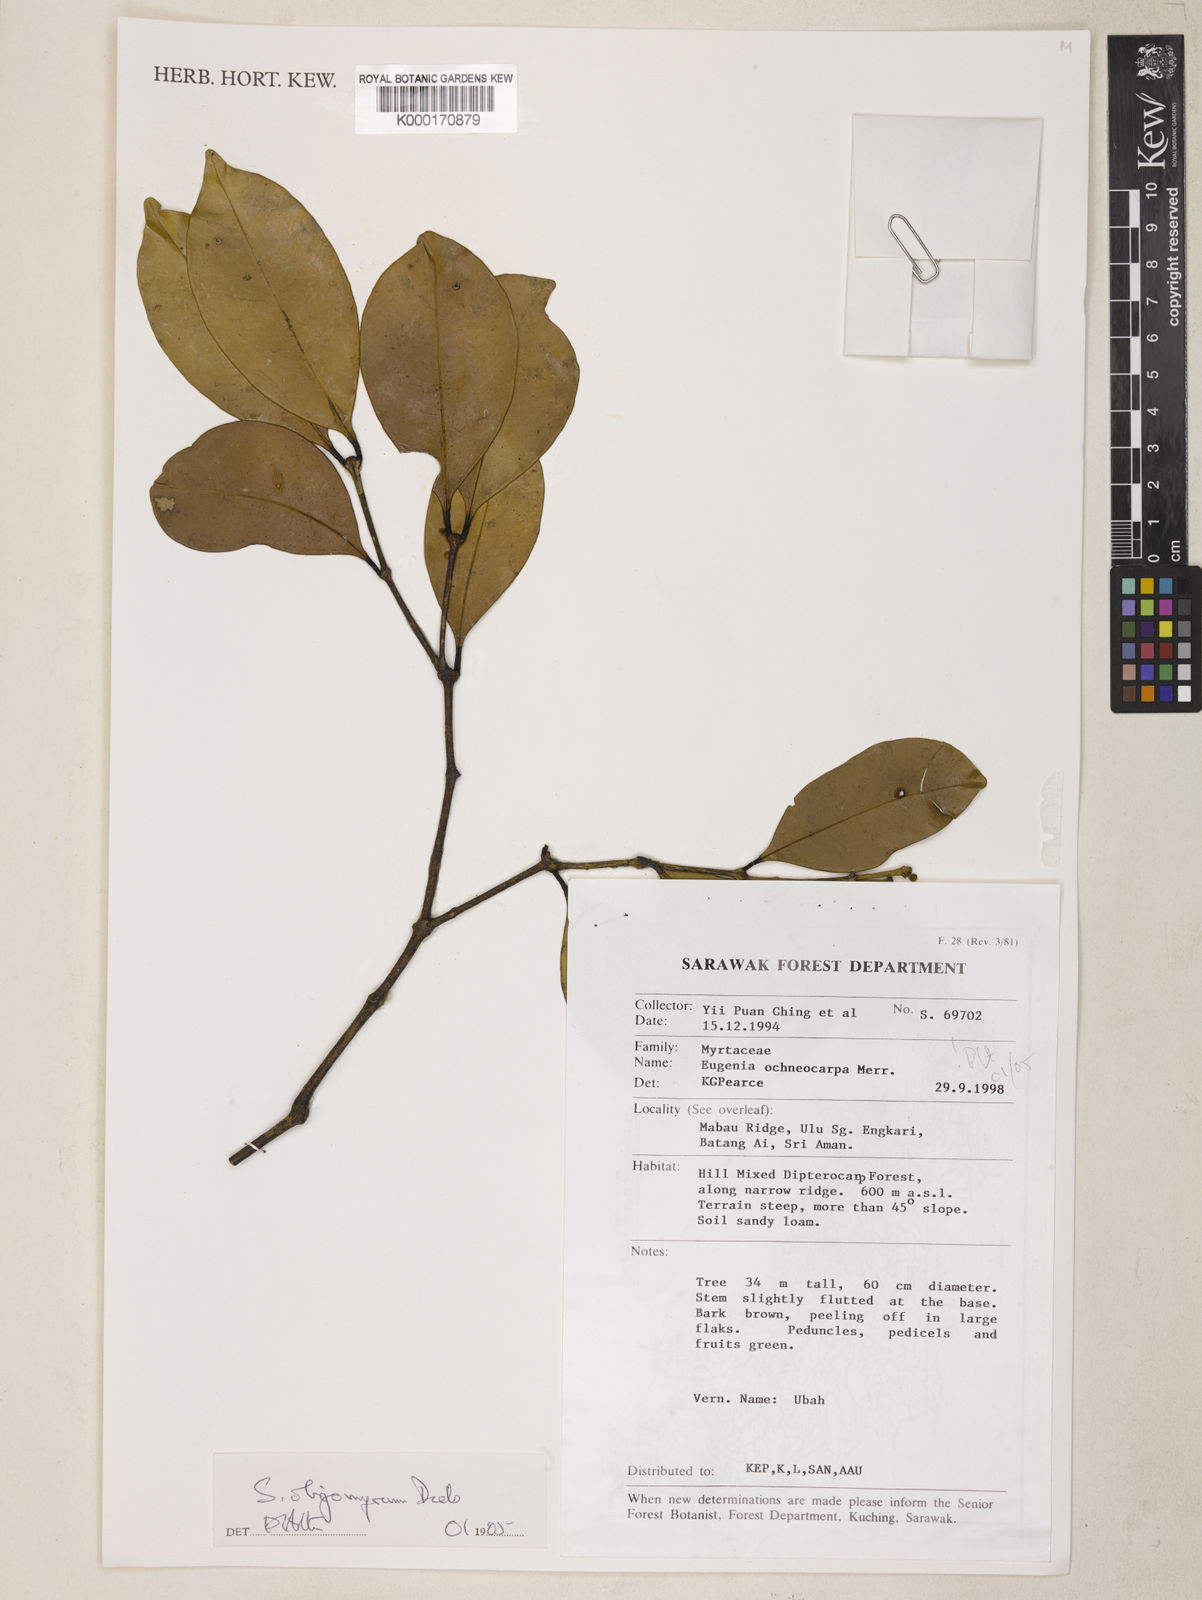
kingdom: Plantae
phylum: Tracheophyta
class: Magnoliopsida
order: Myrtales
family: Myrtaceae
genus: Syzygium
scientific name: Syzygium fusticuliferum
